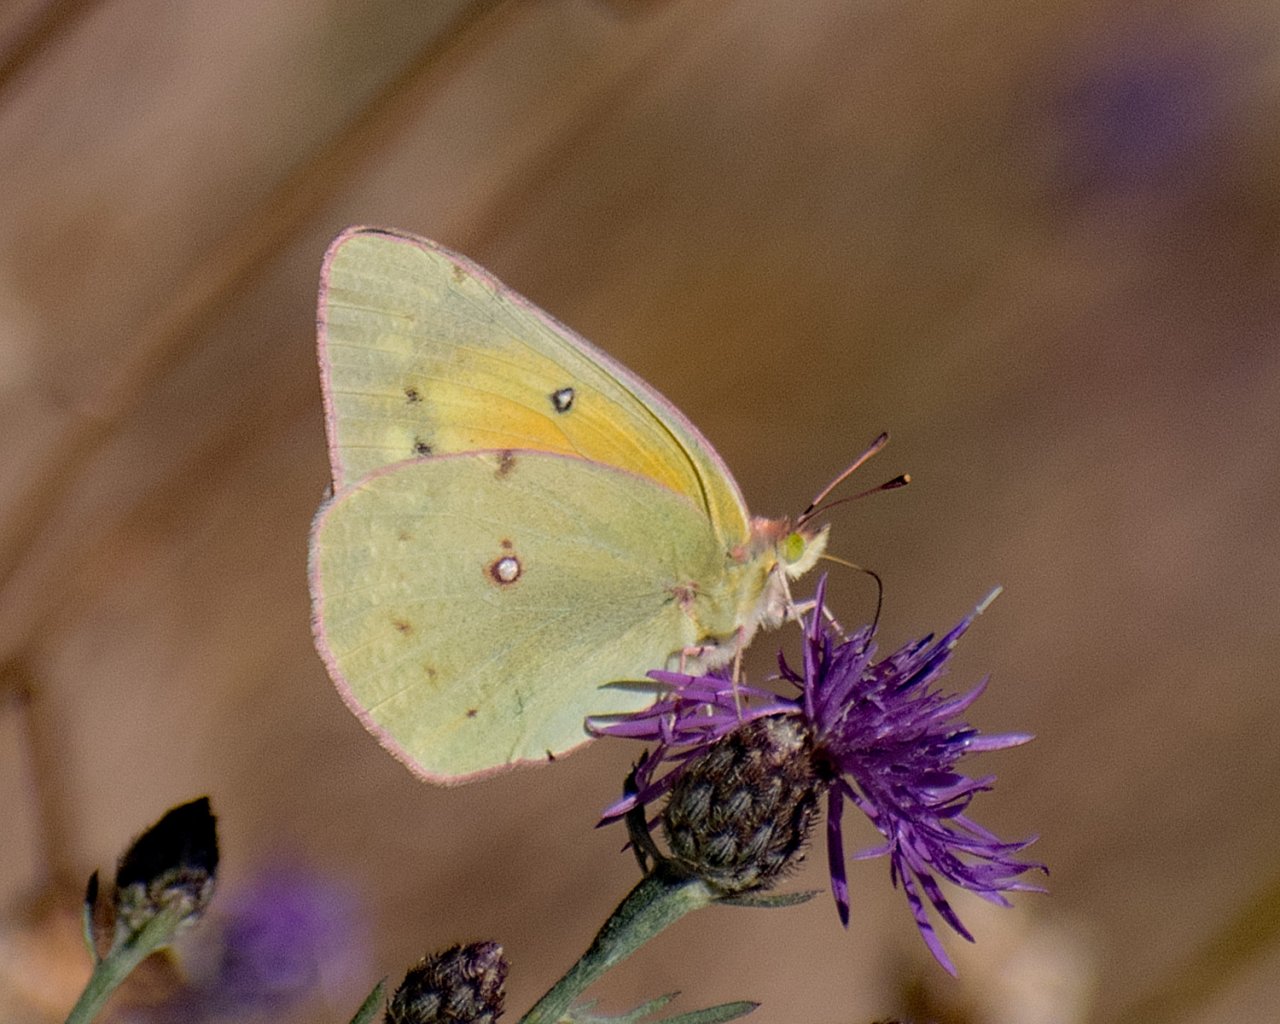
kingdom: Animalia
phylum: Arthropoda
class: Insecta
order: Lepidoptera
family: Pieridae
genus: Colias
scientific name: Colias eurytheme
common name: Orange Sulphur
